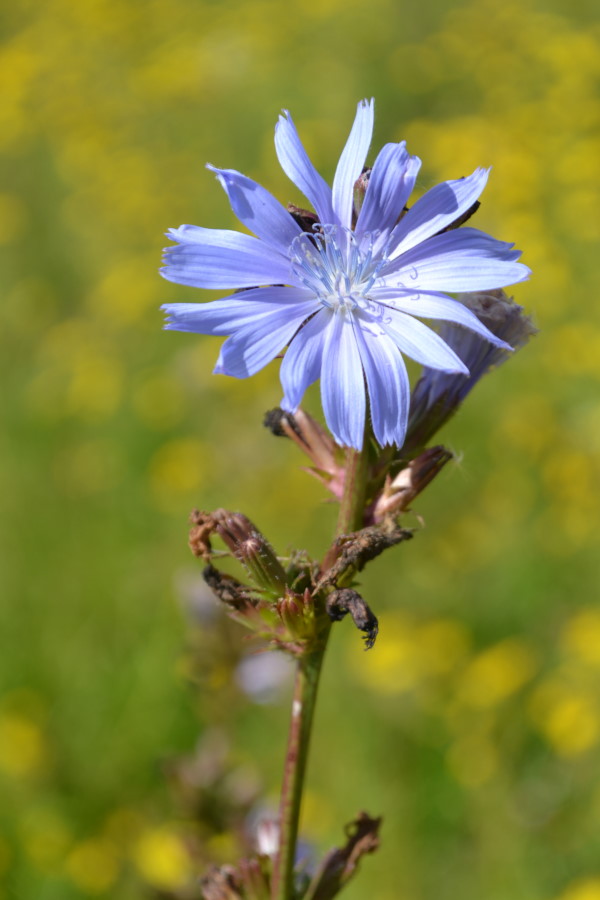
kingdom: Plantae
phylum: Tracheophyta
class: Magnoliopsida
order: Asterales
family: Asteraceae
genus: Cichorium
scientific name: Cichorium intybus
